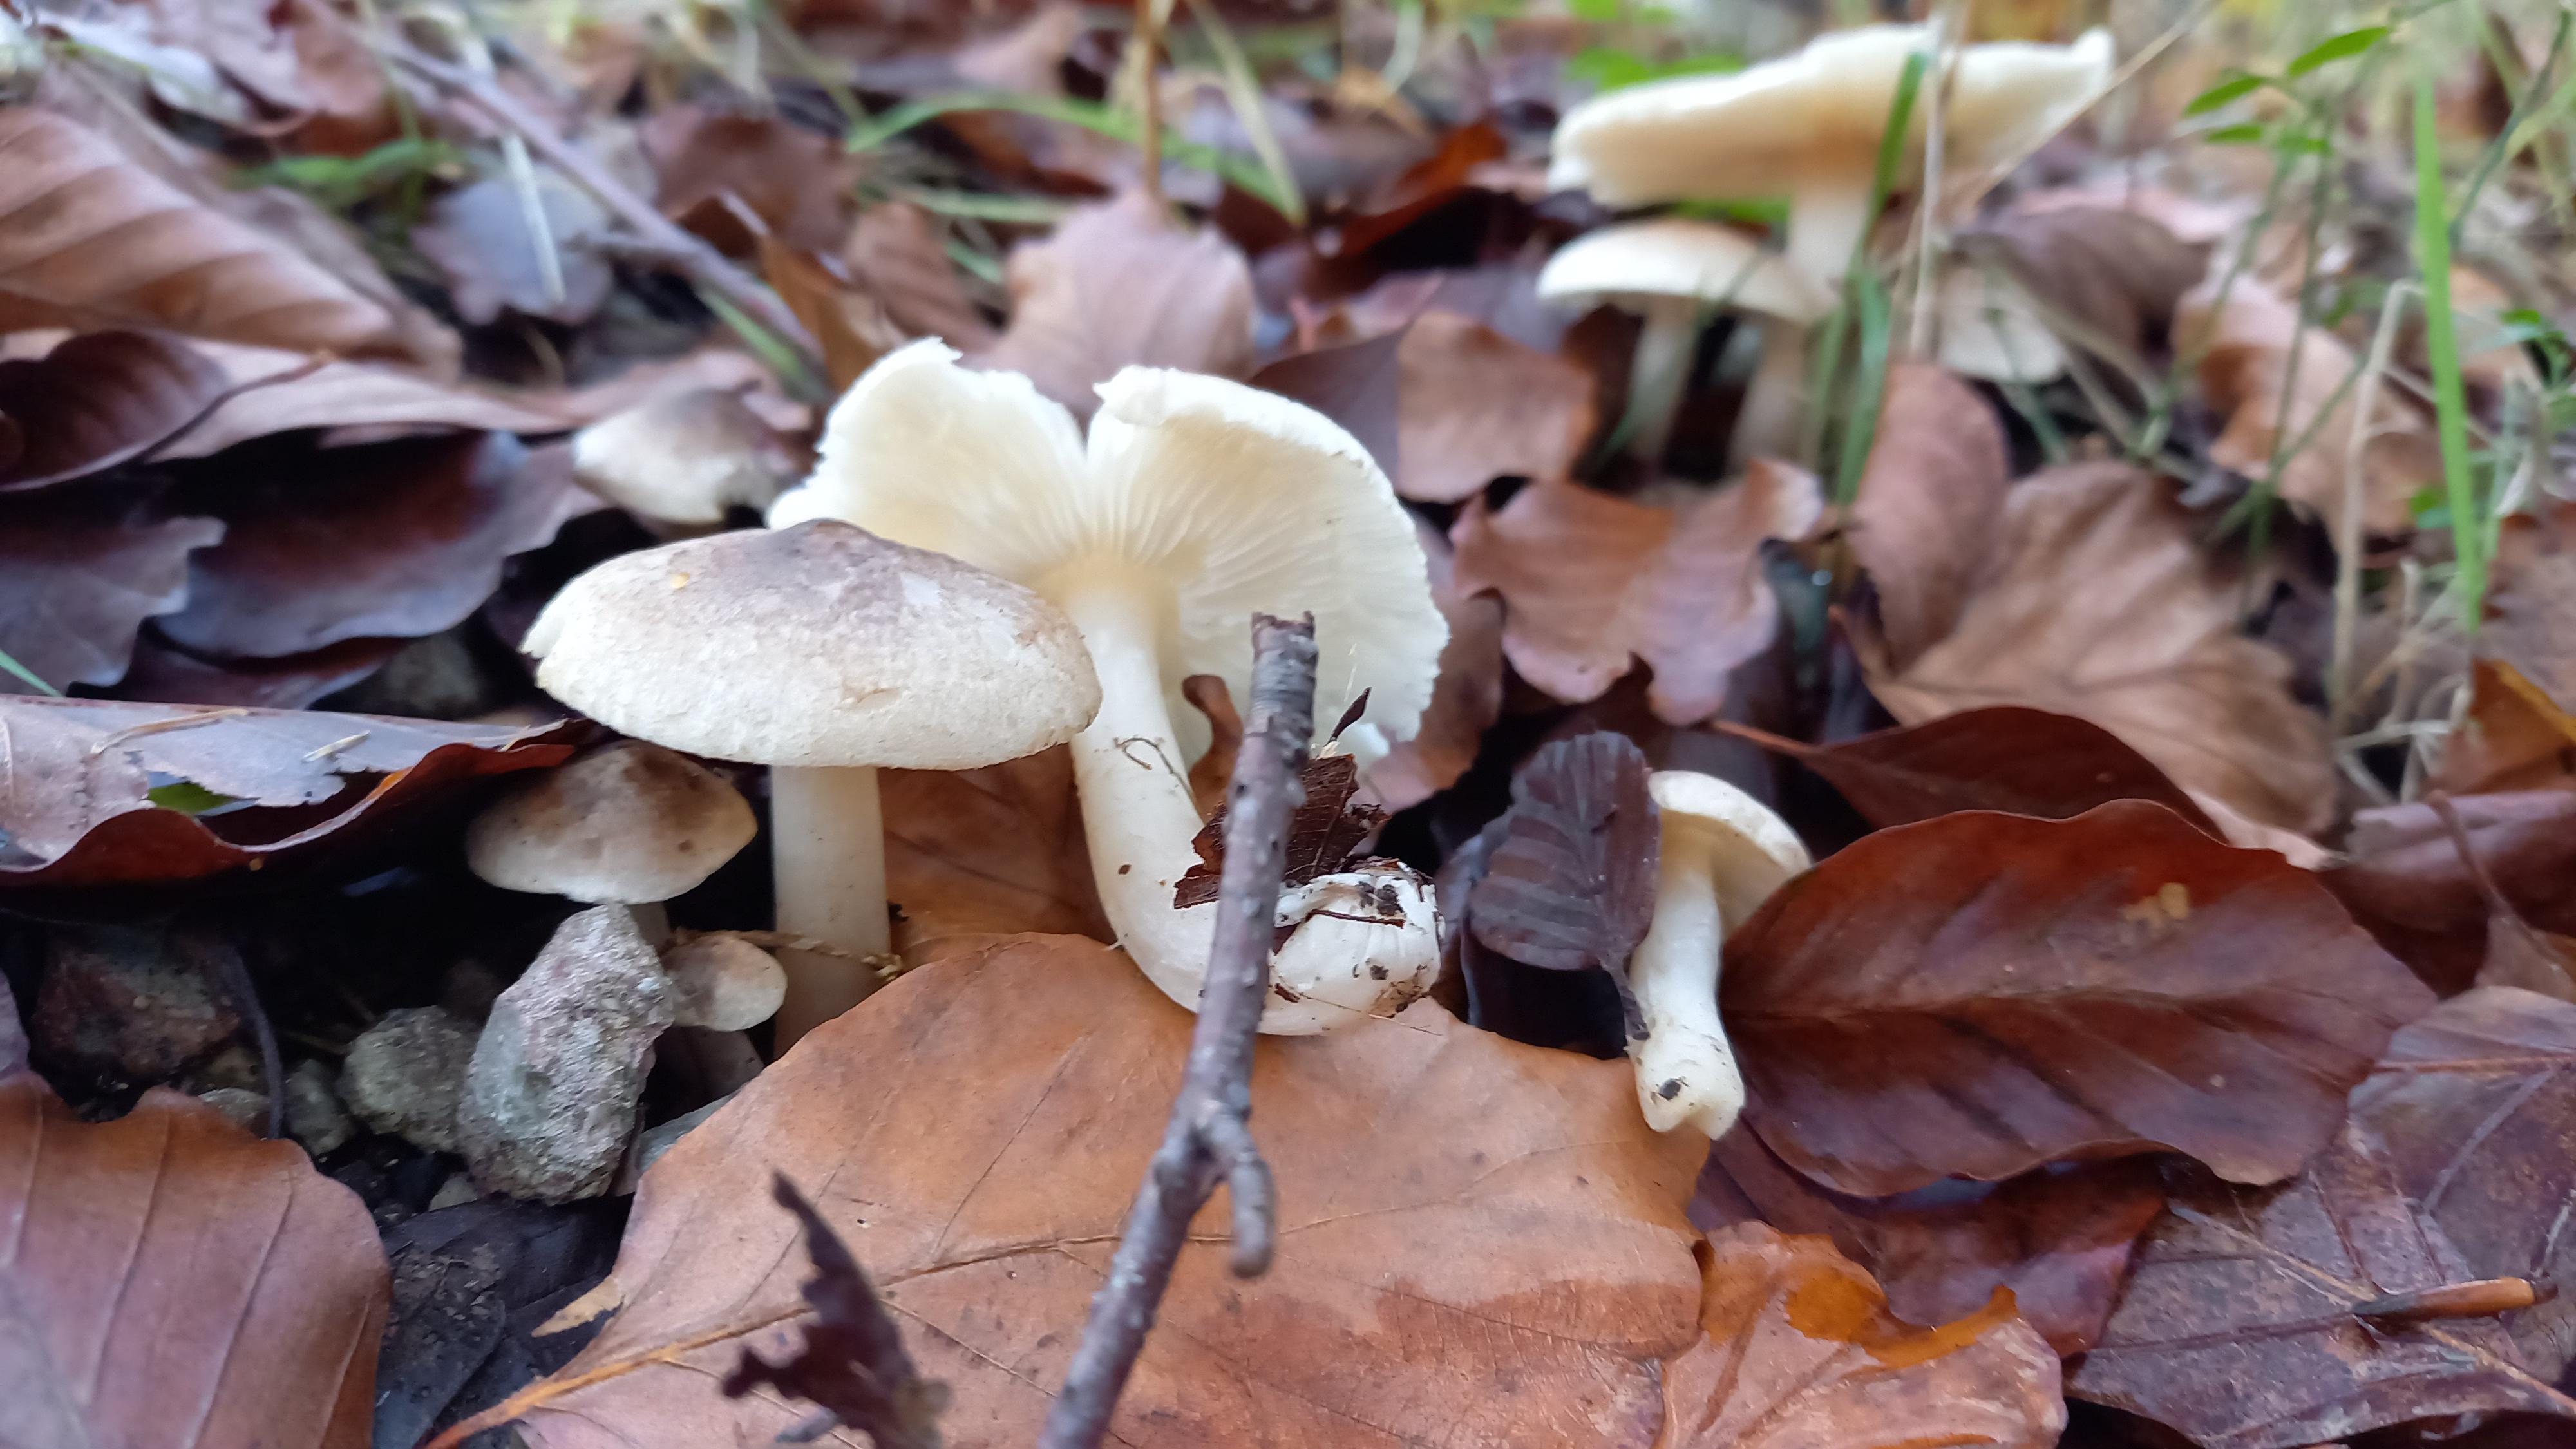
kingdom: Fungi
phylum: Basidiomycota
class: Agaricomycetes
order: Agaricales
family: Tricholomataceae
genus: Tricholoma
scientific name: Tricholoma scalpturatum
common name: gulplettet ridderhat
